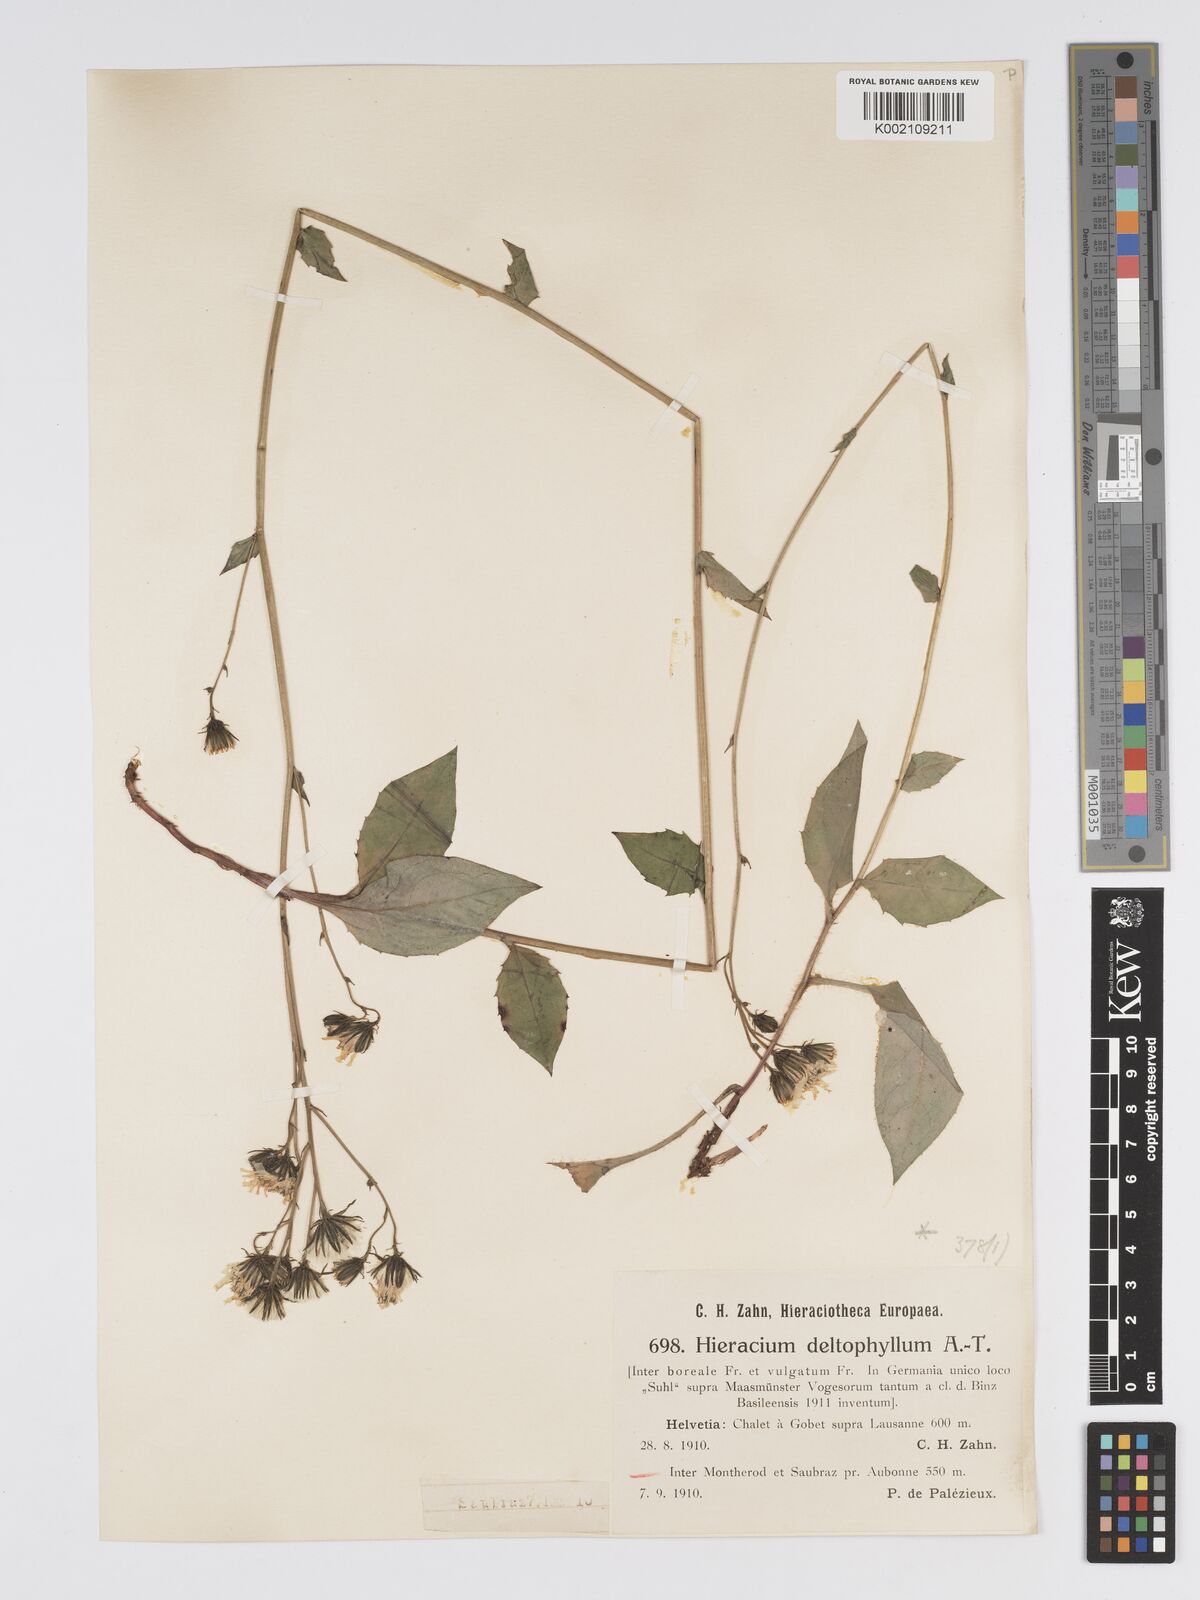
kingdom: Plantae
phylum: Tracheophyta
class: Magnoliopsida
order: Asterales
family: Asteraceae
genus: Hieracium
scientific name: Hieracium flagelliferum
